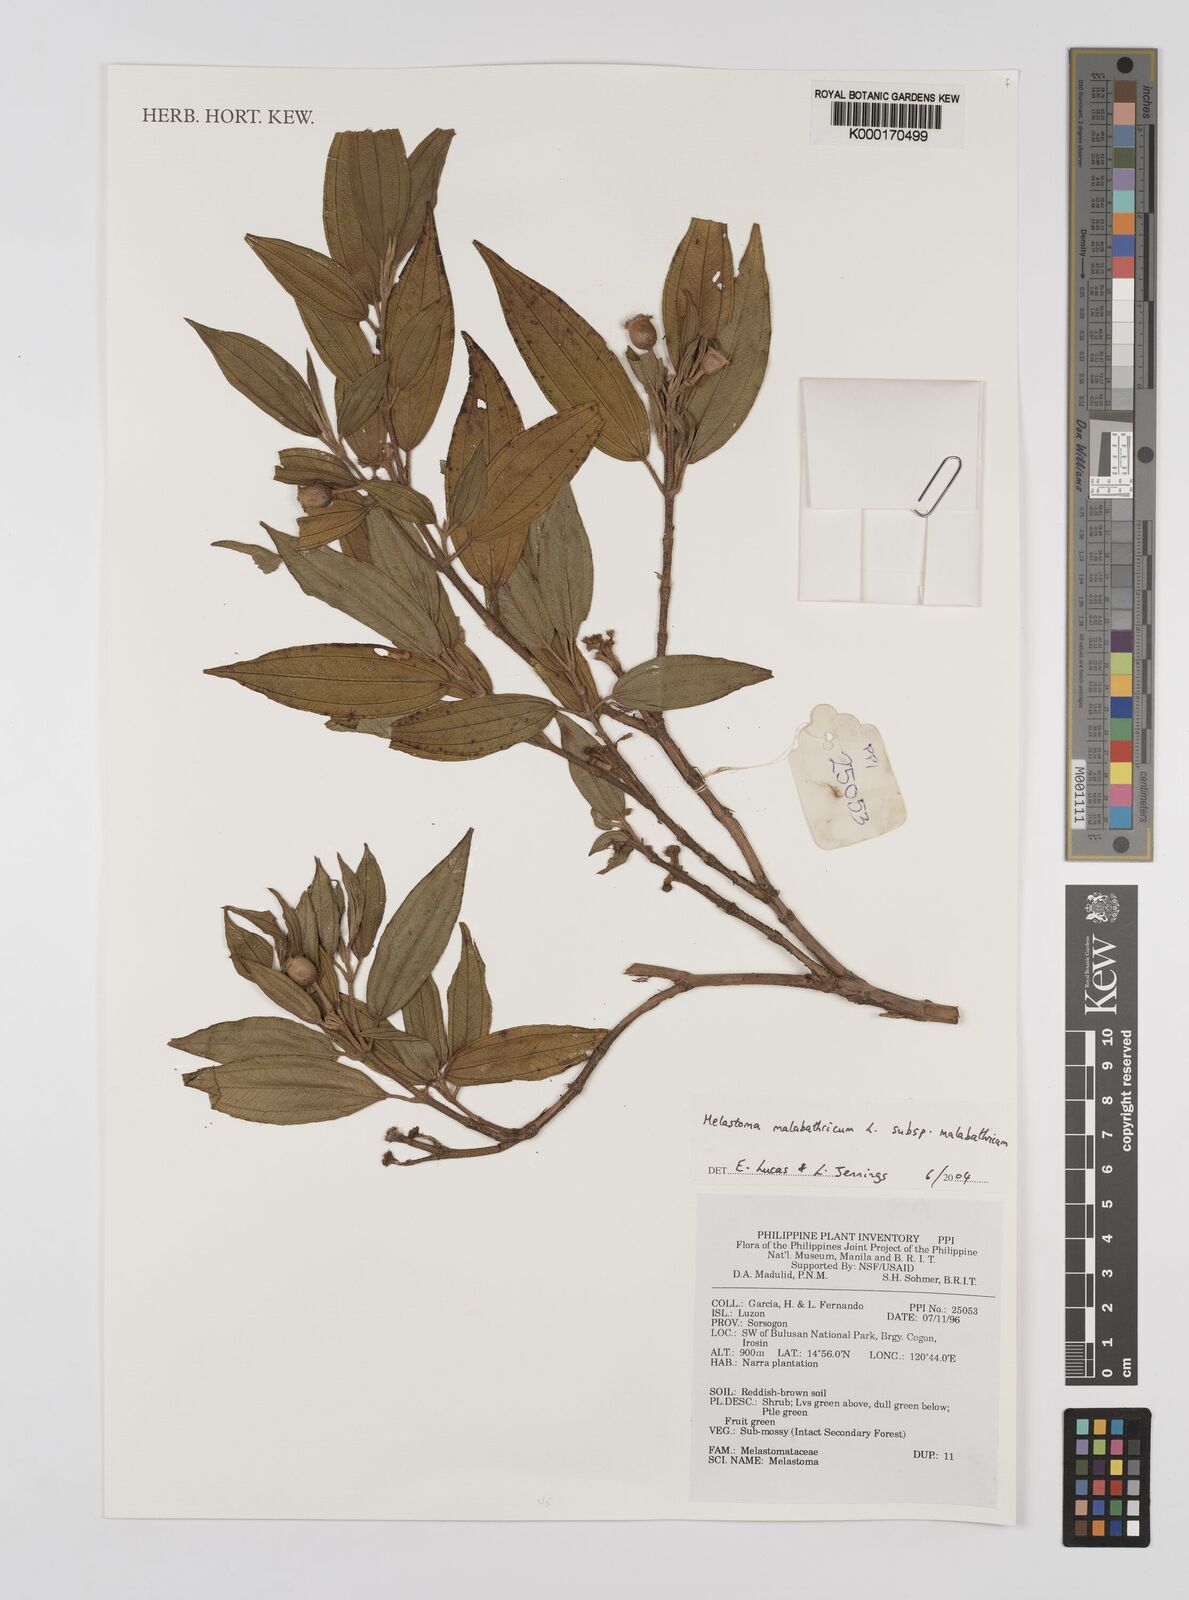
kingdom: Plantae
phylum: Tracheophyta
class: Magnoliopsida
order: Myrtales
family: Melastomataceae
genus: Melastoma
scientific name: Melastoma malabathricum
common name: Indian-rhododendron
